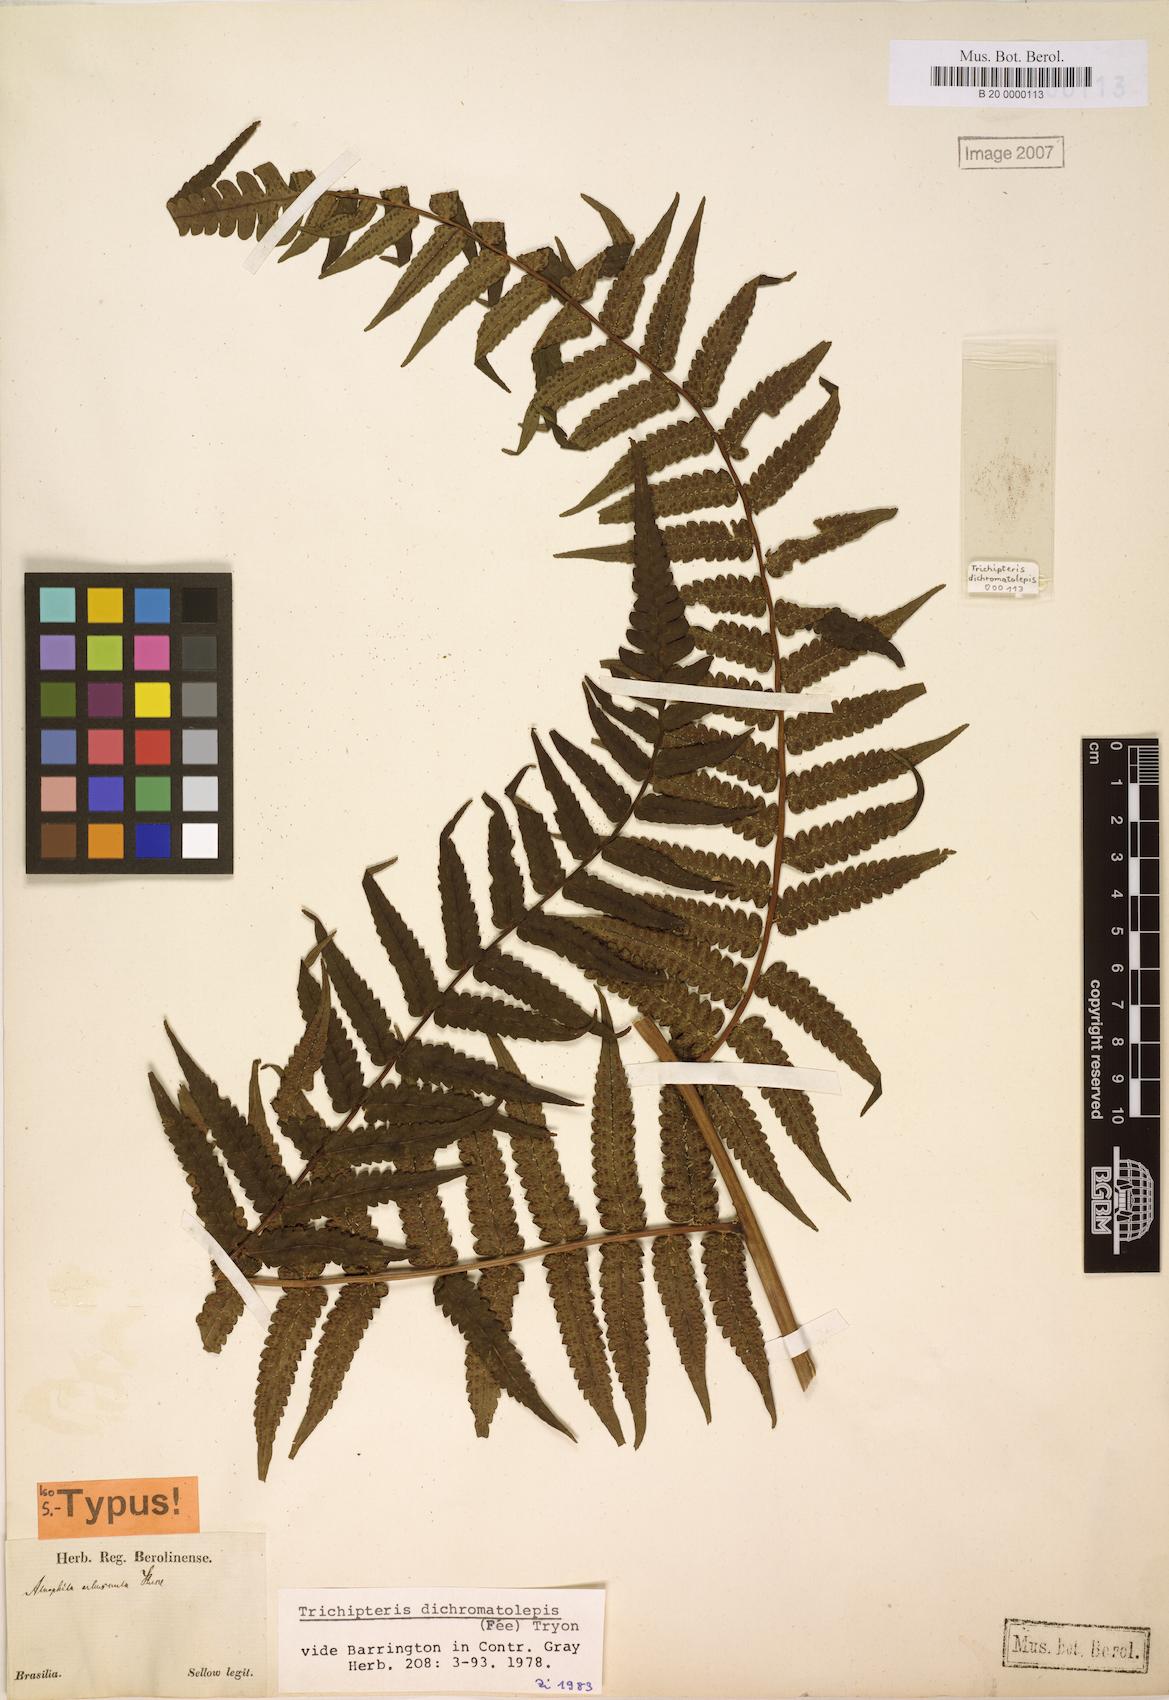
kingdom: Plantae
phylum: Tracheophyta
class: Polypodiopsida
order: Cyatheales
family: Cyatheaceae
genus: Cyathea
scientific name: Cyathea dichromatolepis
